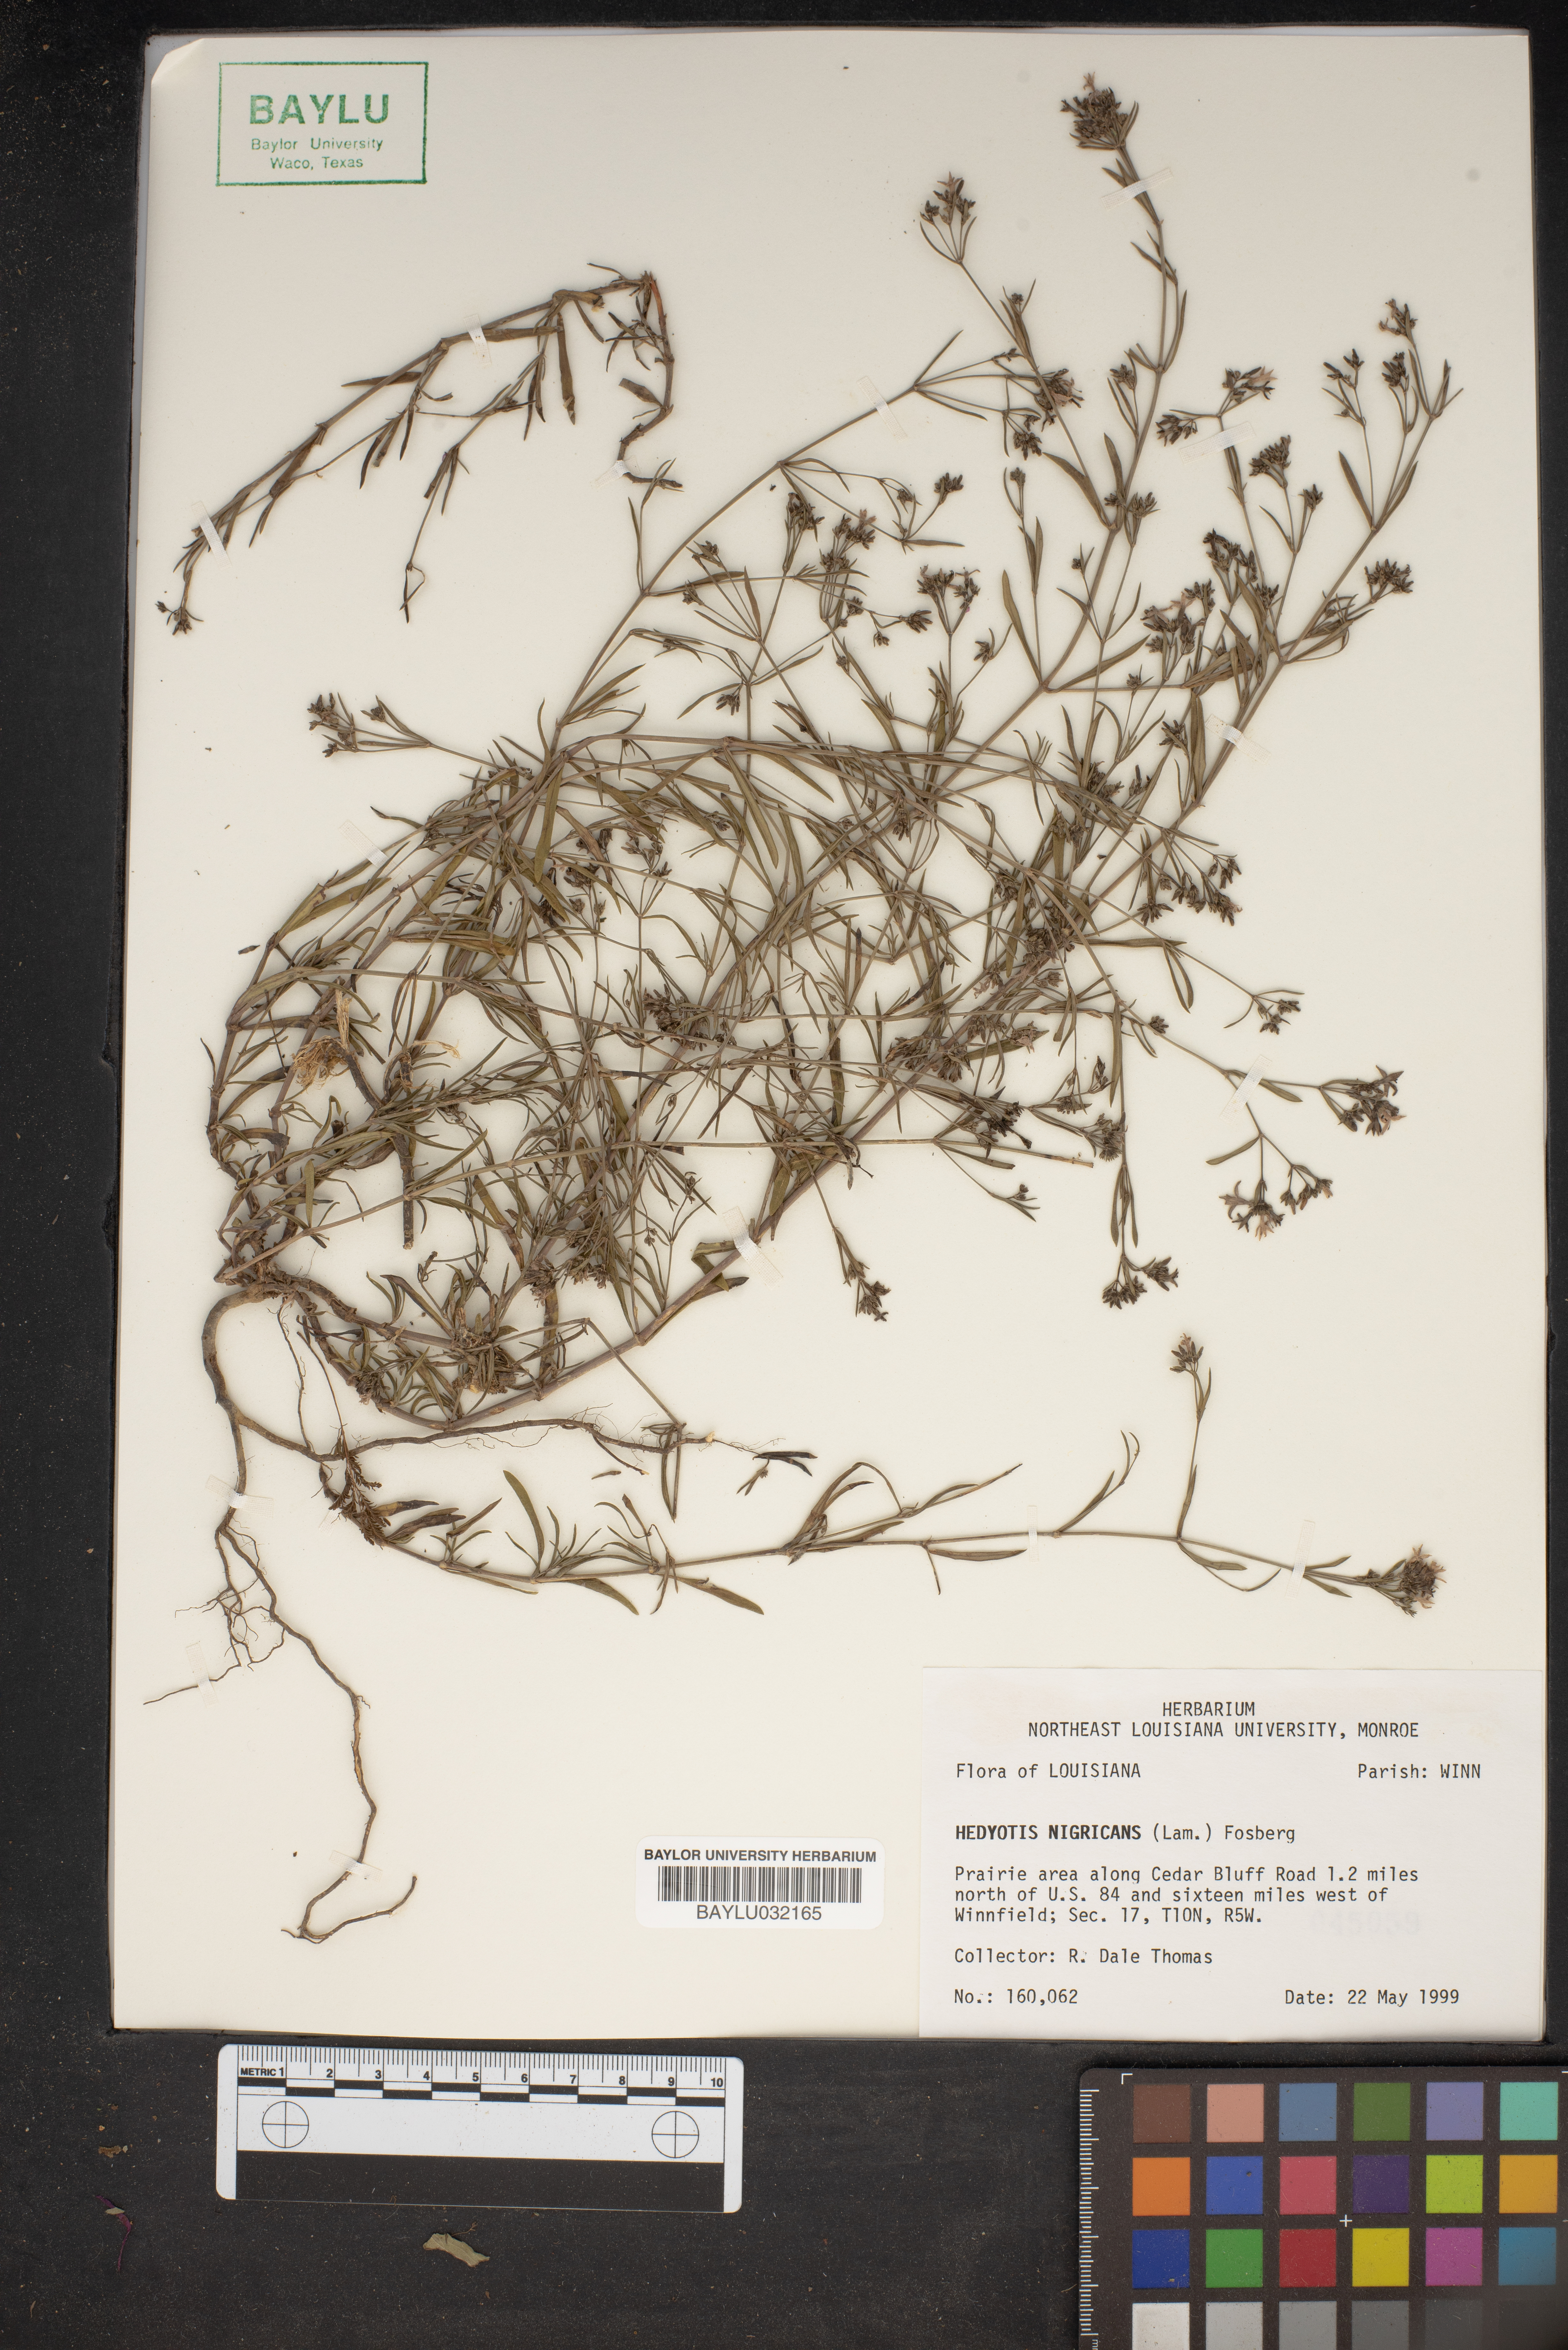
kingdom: Plantae
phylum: Tracheophyta
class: Magnoliopsida
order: Gentianales
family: Rubiaceae
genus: Stenaria
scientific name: Stenaria nigricans
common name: Diamondflowers
